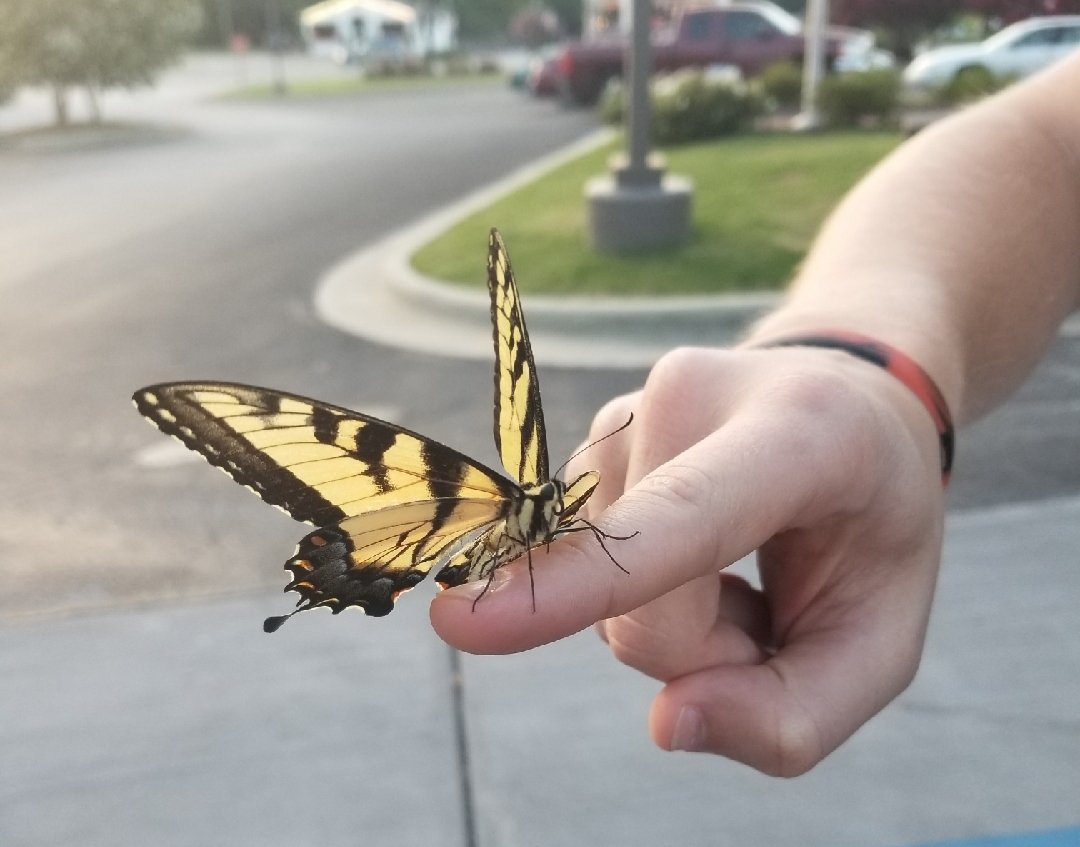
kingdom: Animalia
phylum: Arthropoda
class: Insecta
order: Lepidoptera
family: Papilionidae
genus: Pterourus
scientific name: Pterourus glaucus
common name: Eastern Tiger Swallowtail
